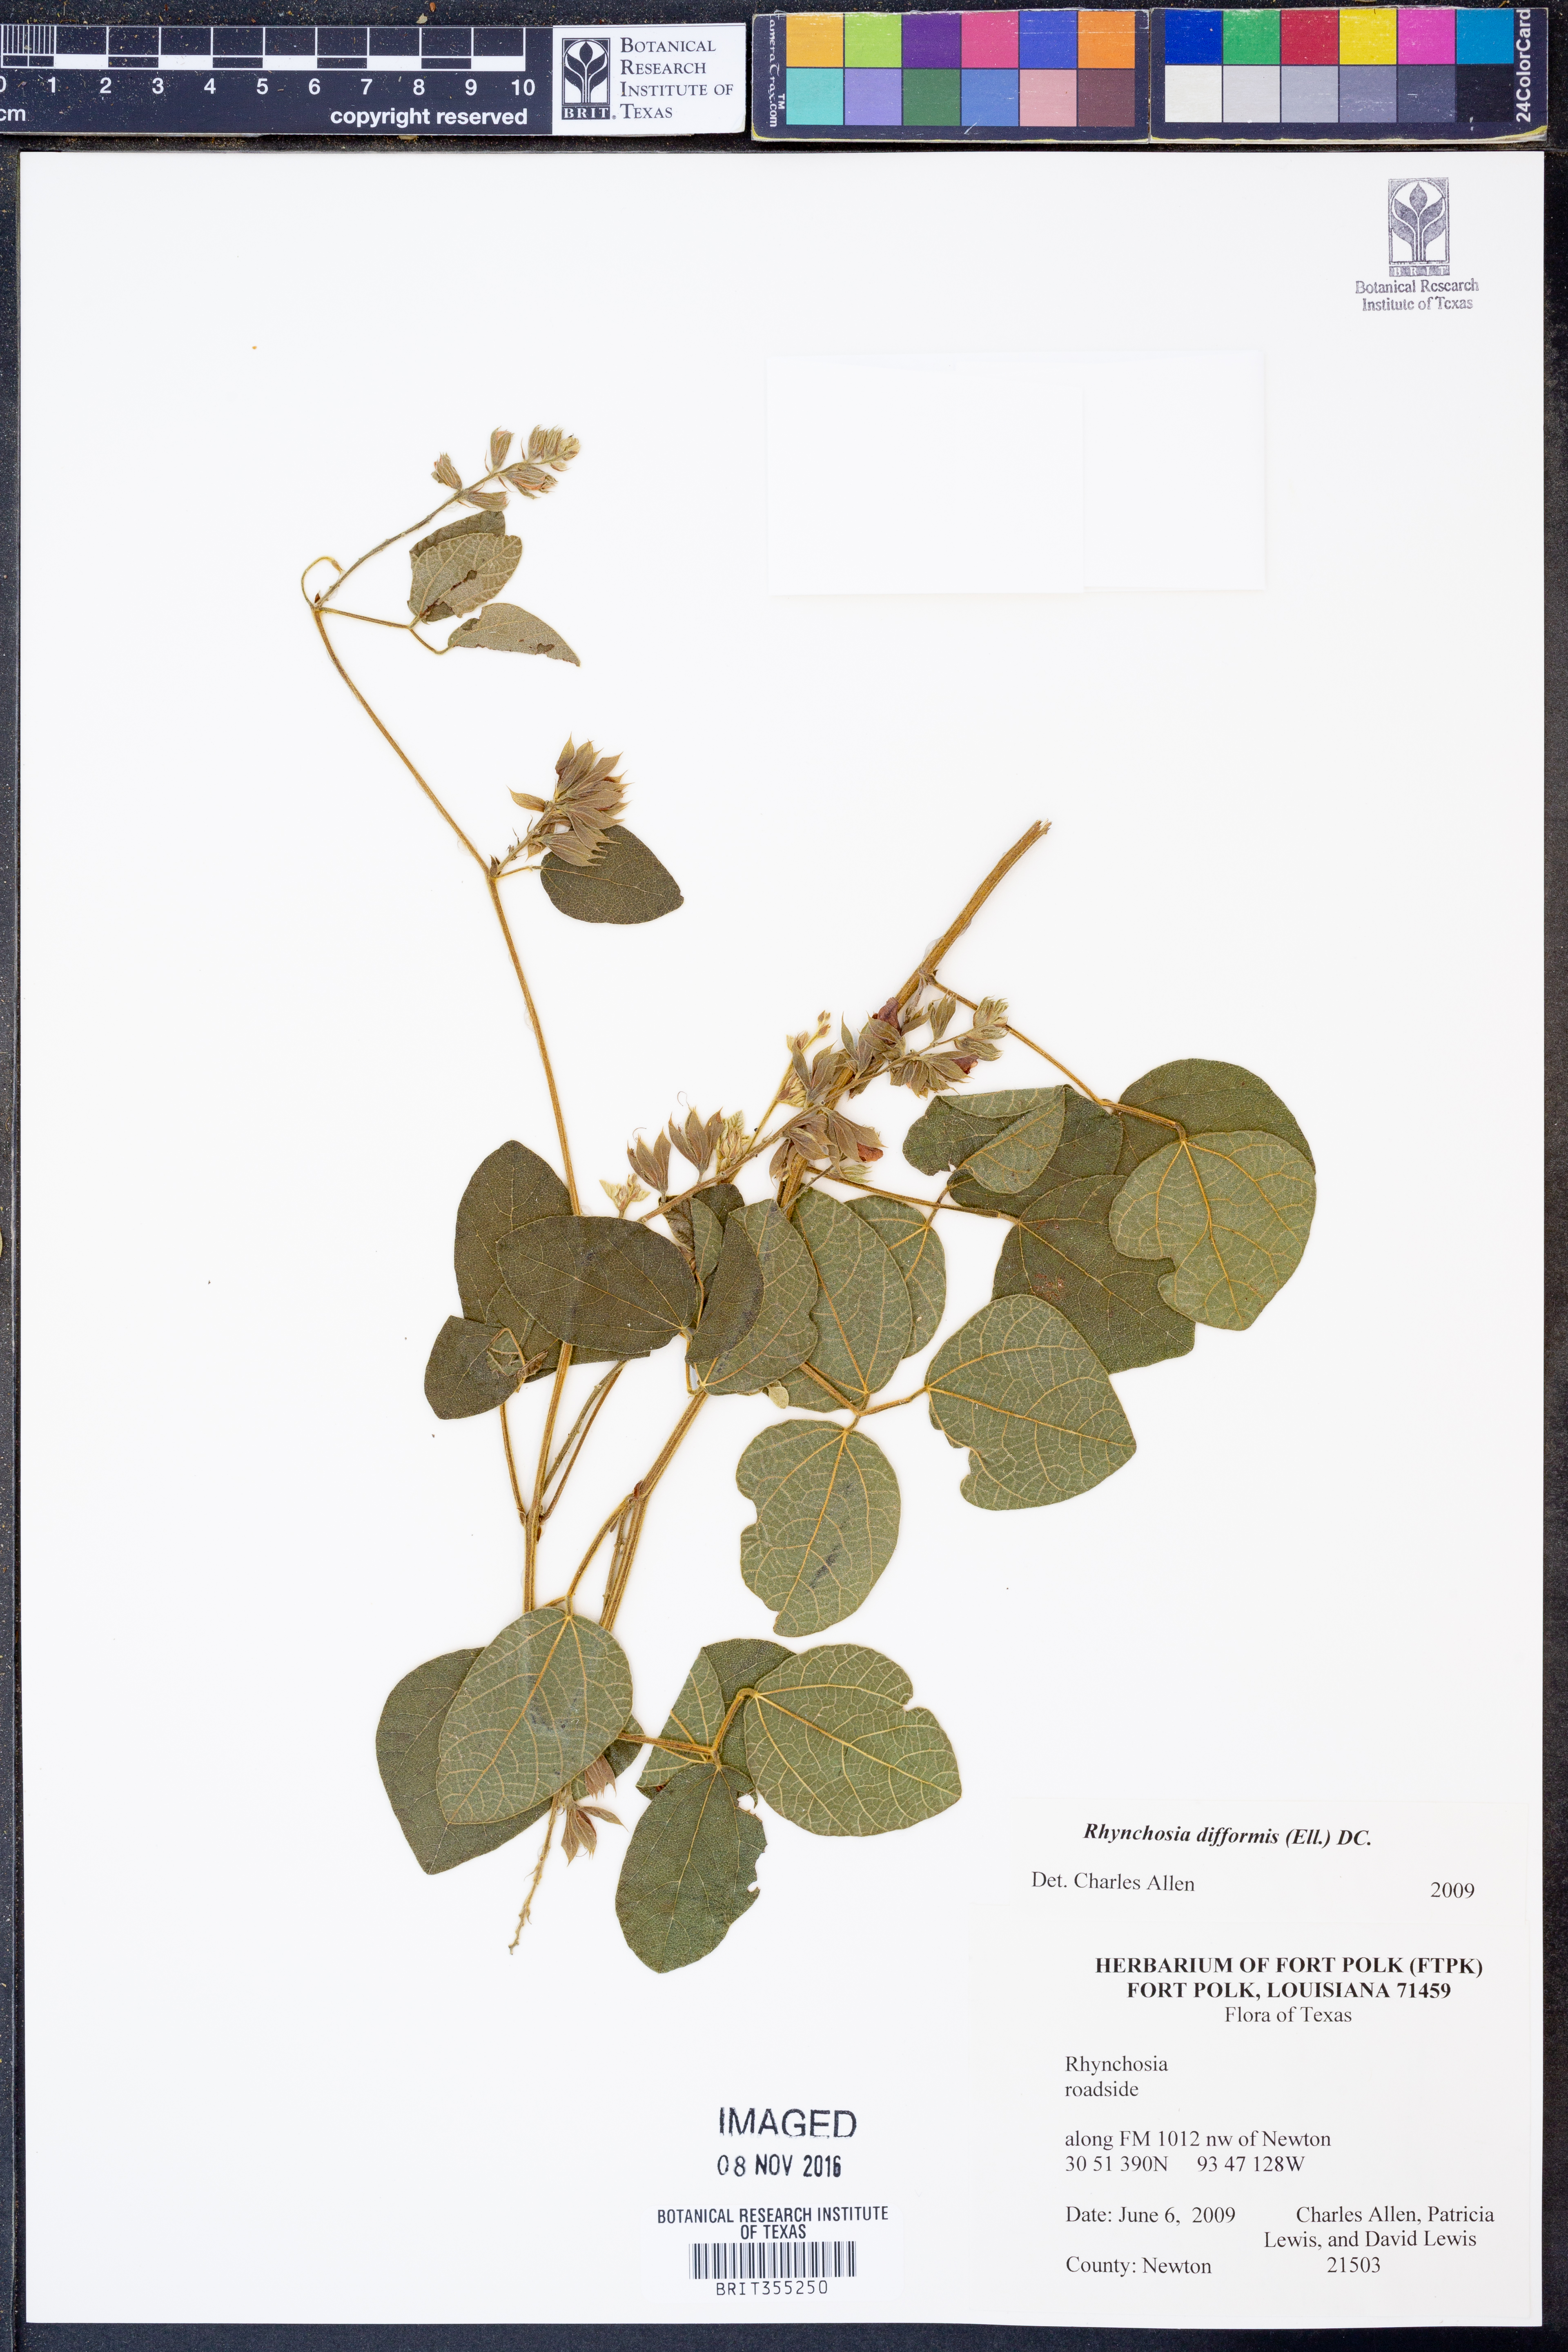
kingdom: Plantae
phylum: Tracheophyta
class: Magnoliopsida
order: Fabales
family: Fabaceae
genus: Rhynchosia
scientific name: Rhynchosia difformis
